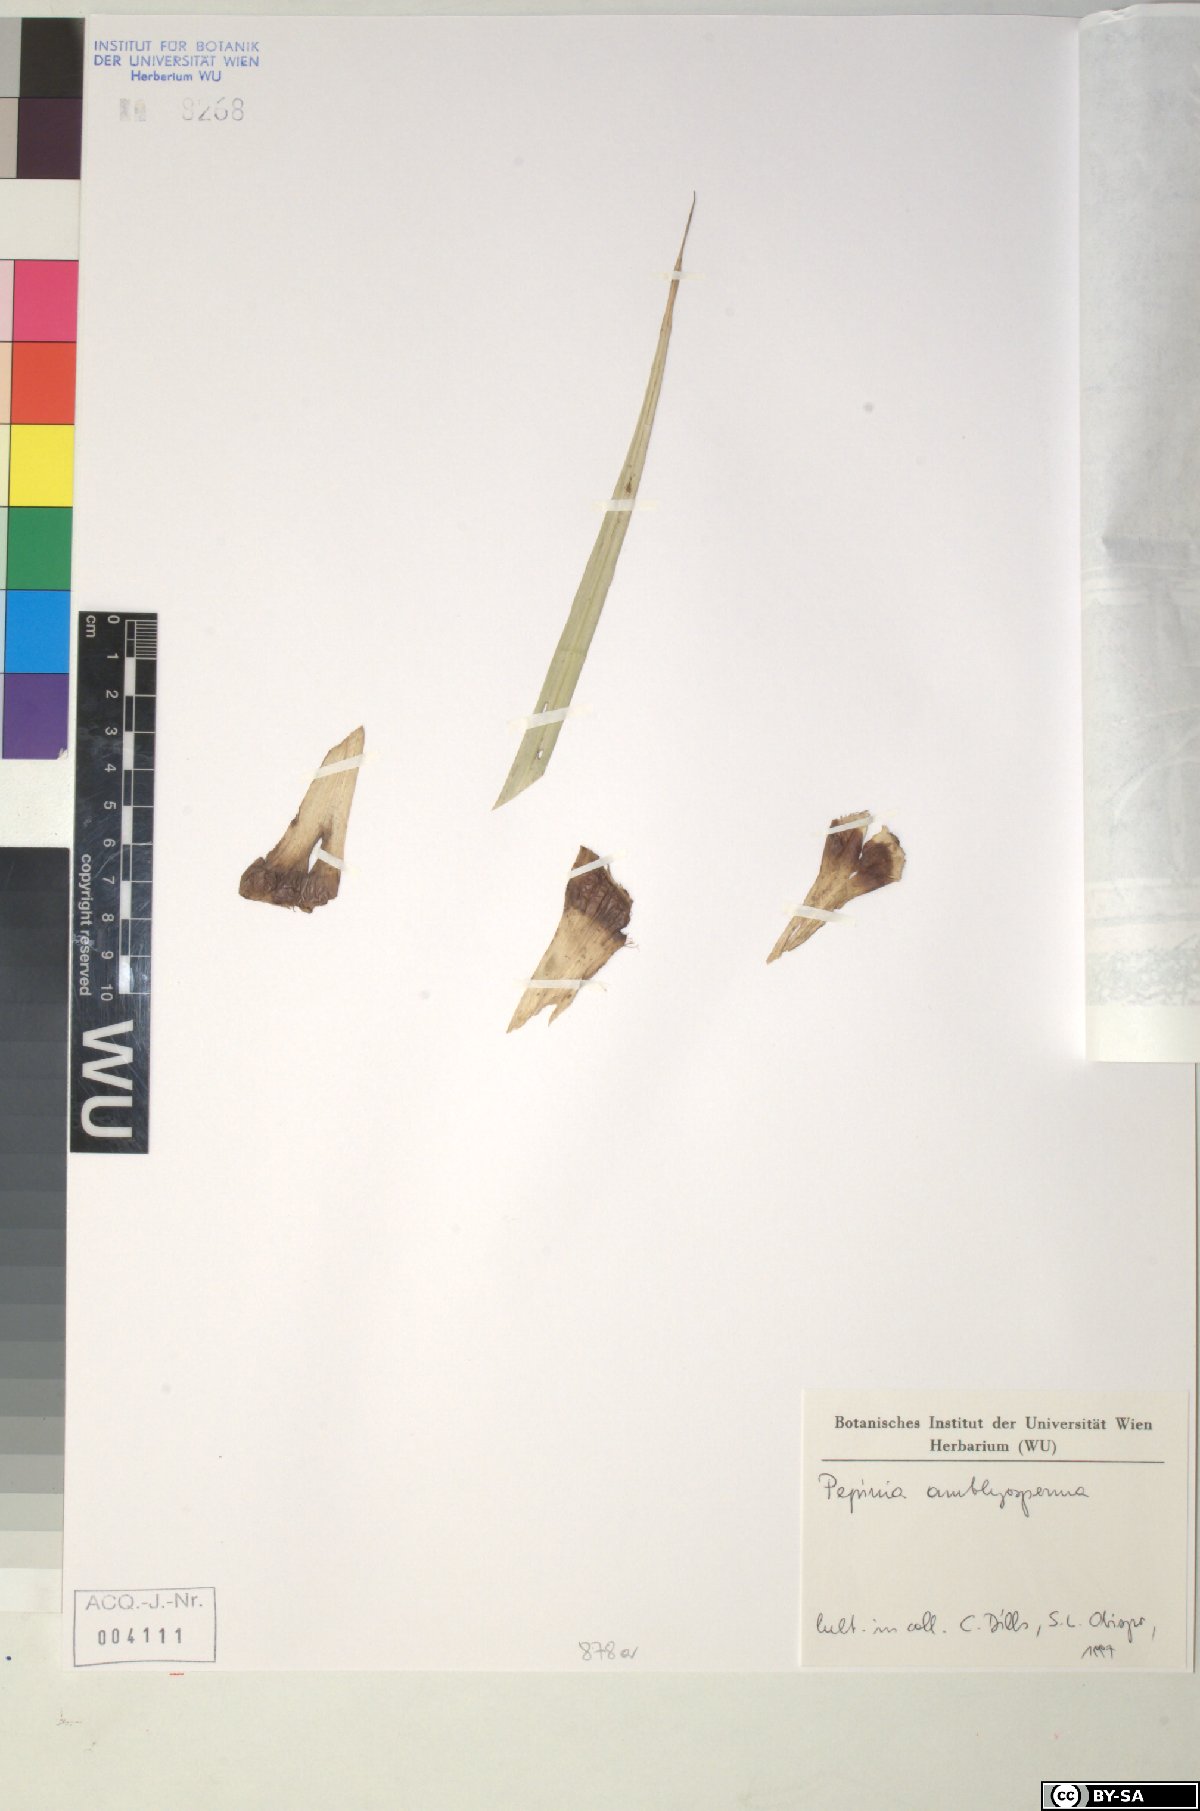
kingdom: Plantae
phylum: Tracheophyta
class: Liliopsida
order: Poales
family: Bromeliaceae
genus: Pepinia
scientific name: Pepinia
